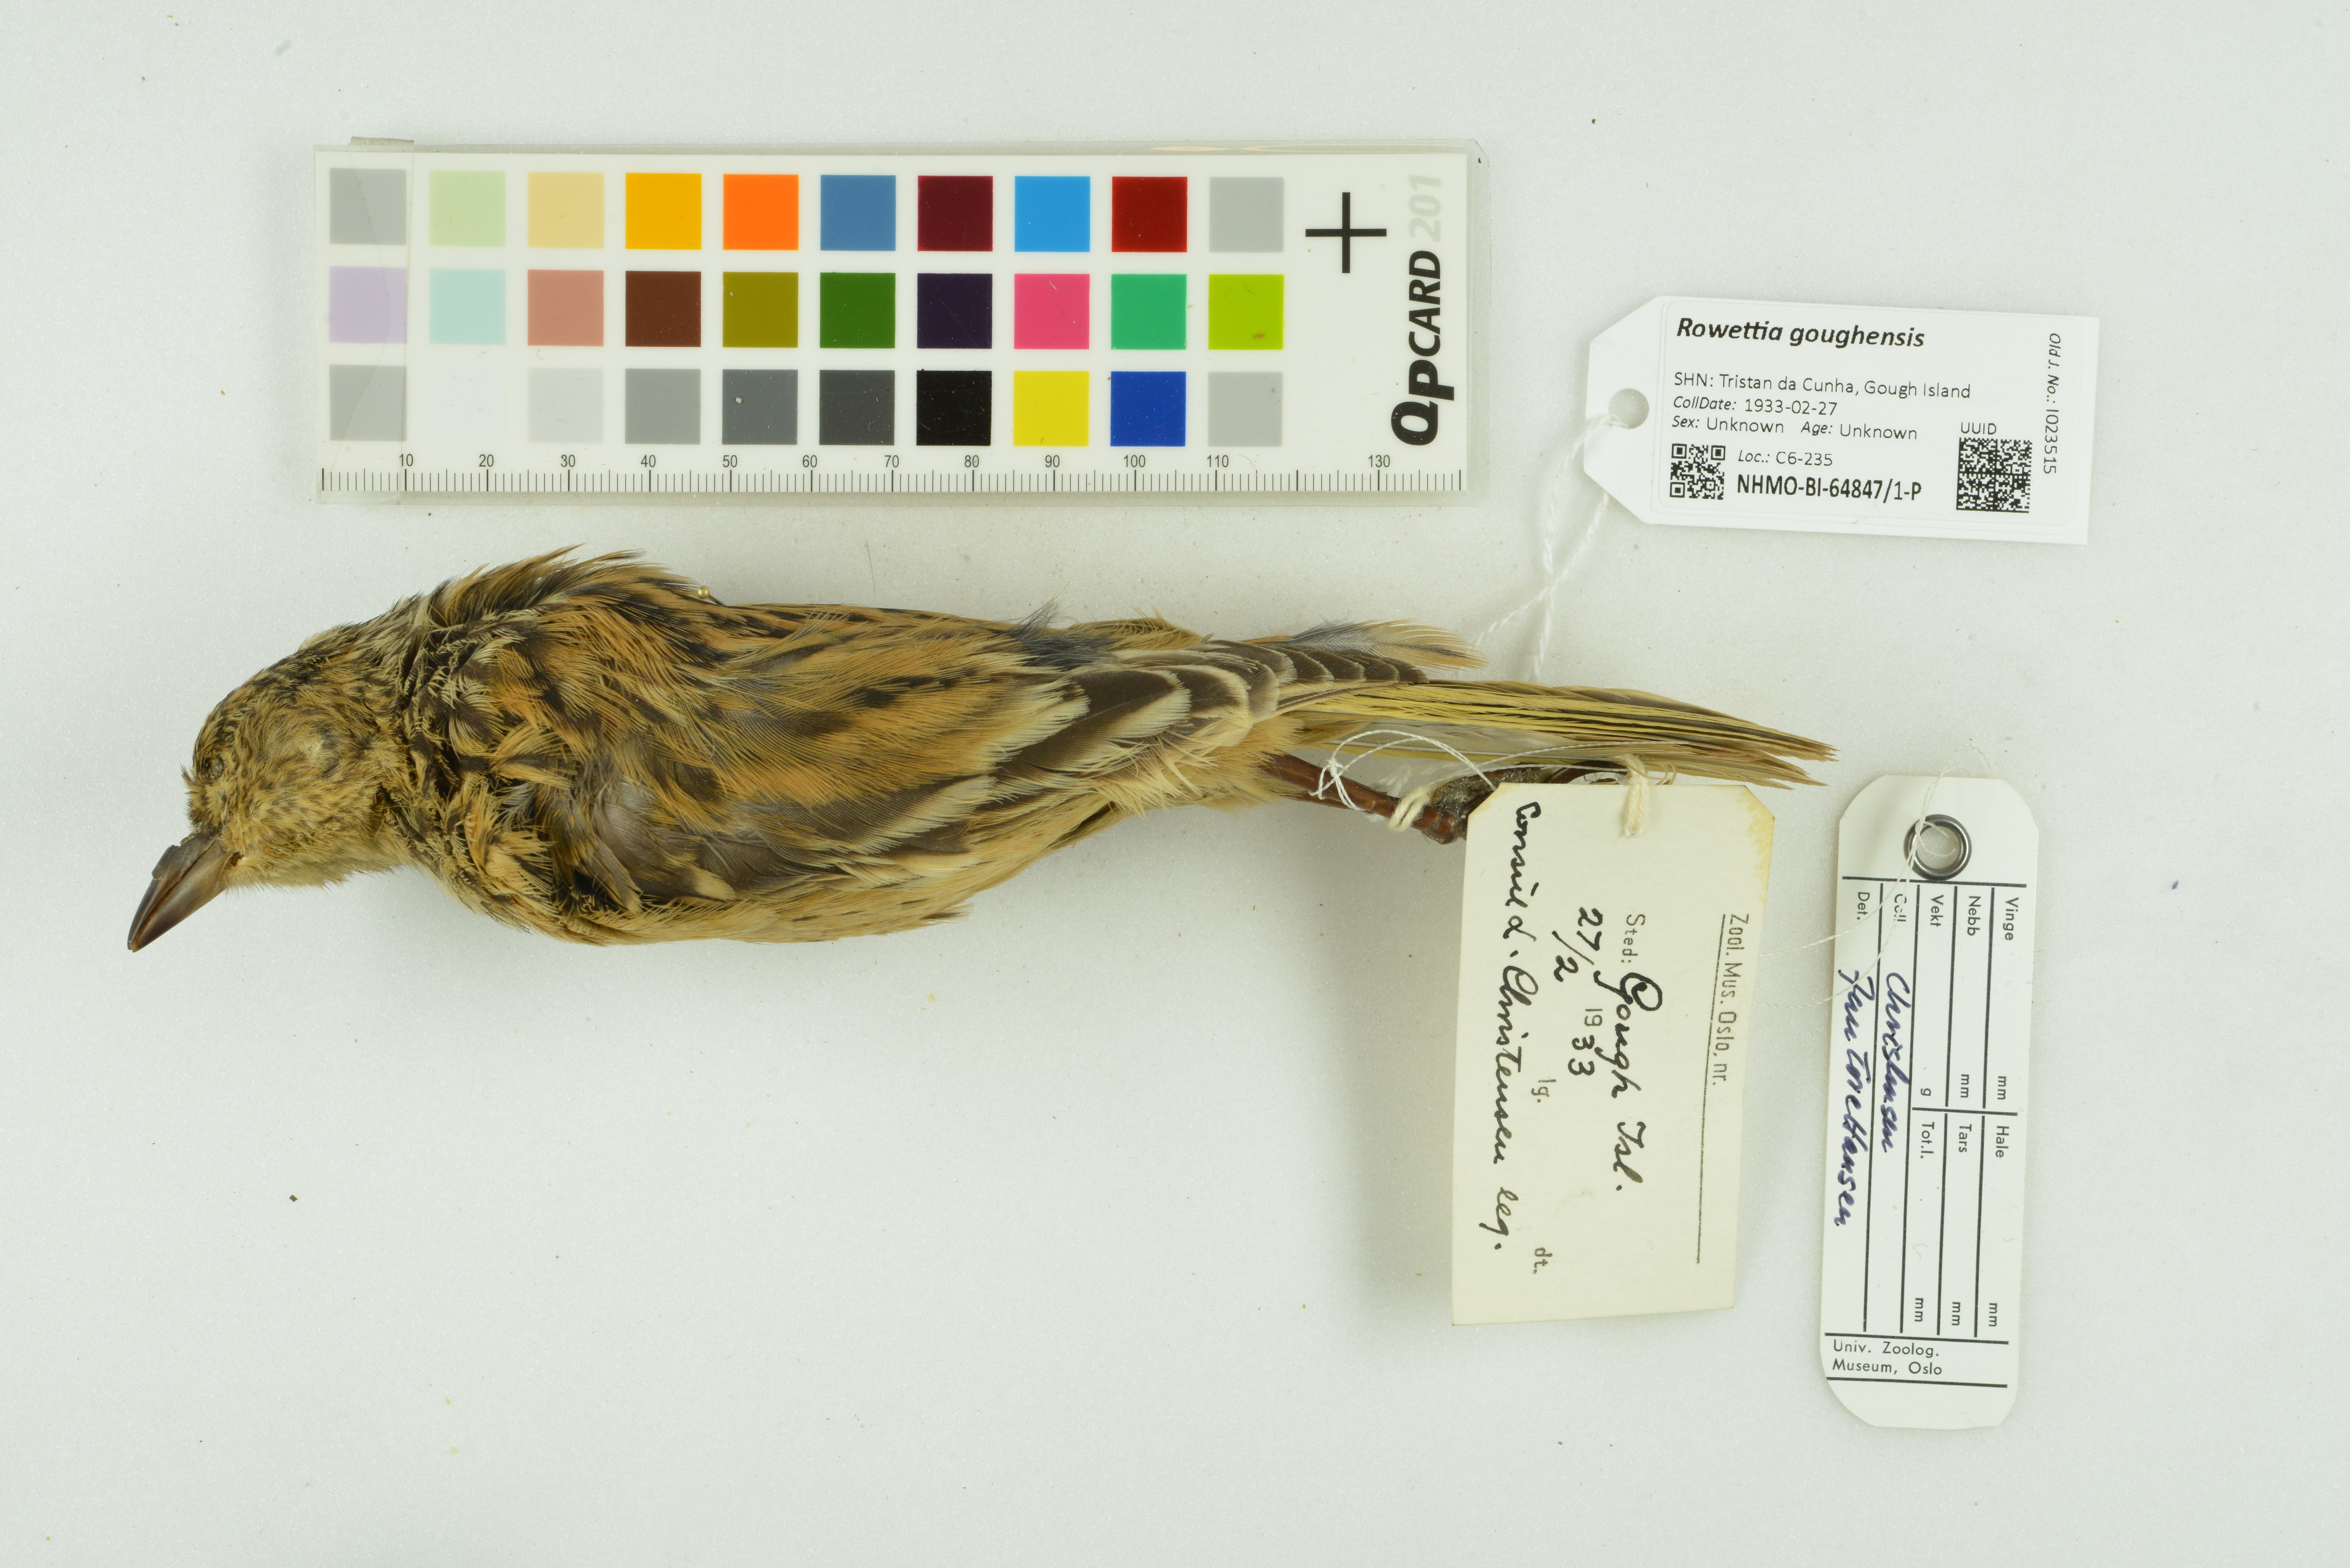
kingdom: Animalia
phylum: Chordata
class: Aves
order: Passeriformes
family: Thraupidae
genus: Rowettia
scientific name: Rowettia goughensis
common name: Gough finch
